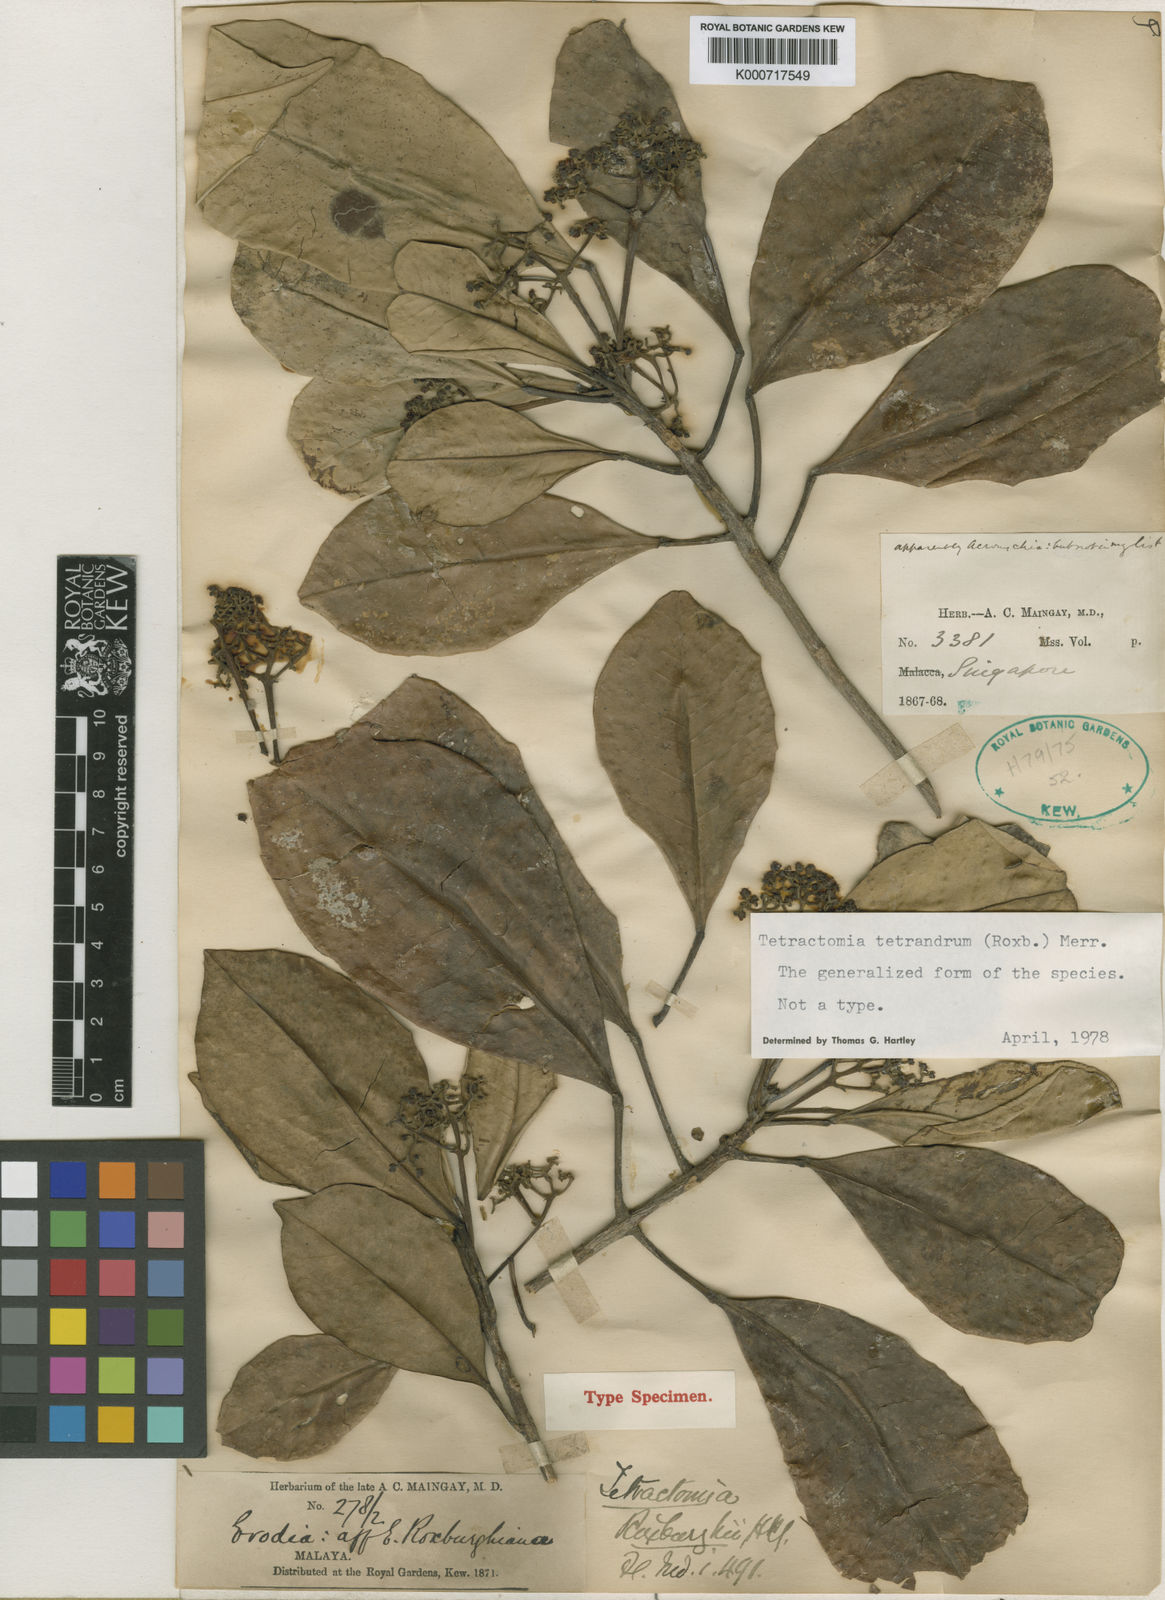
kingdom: Plantae
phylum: Tracheophyta
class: Magnoliopsida
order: Sapindales
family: Rutaceae
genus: Tetractomia
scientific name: Tetractomia tetrandra
